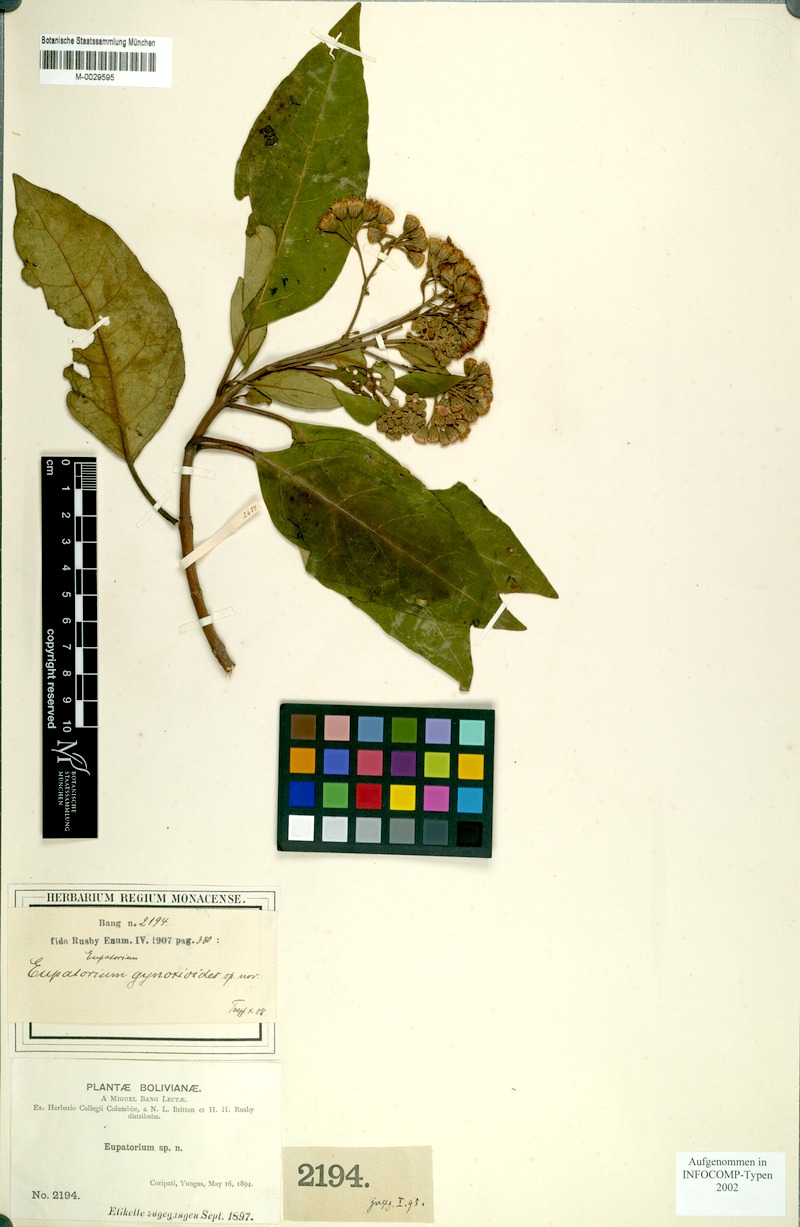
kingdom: Plantae
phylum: Tracheophyta
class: Magnoliopsida
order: Asterales
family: Asteraceae
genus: Kaunia
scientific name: Kaunia gynoximorpha
